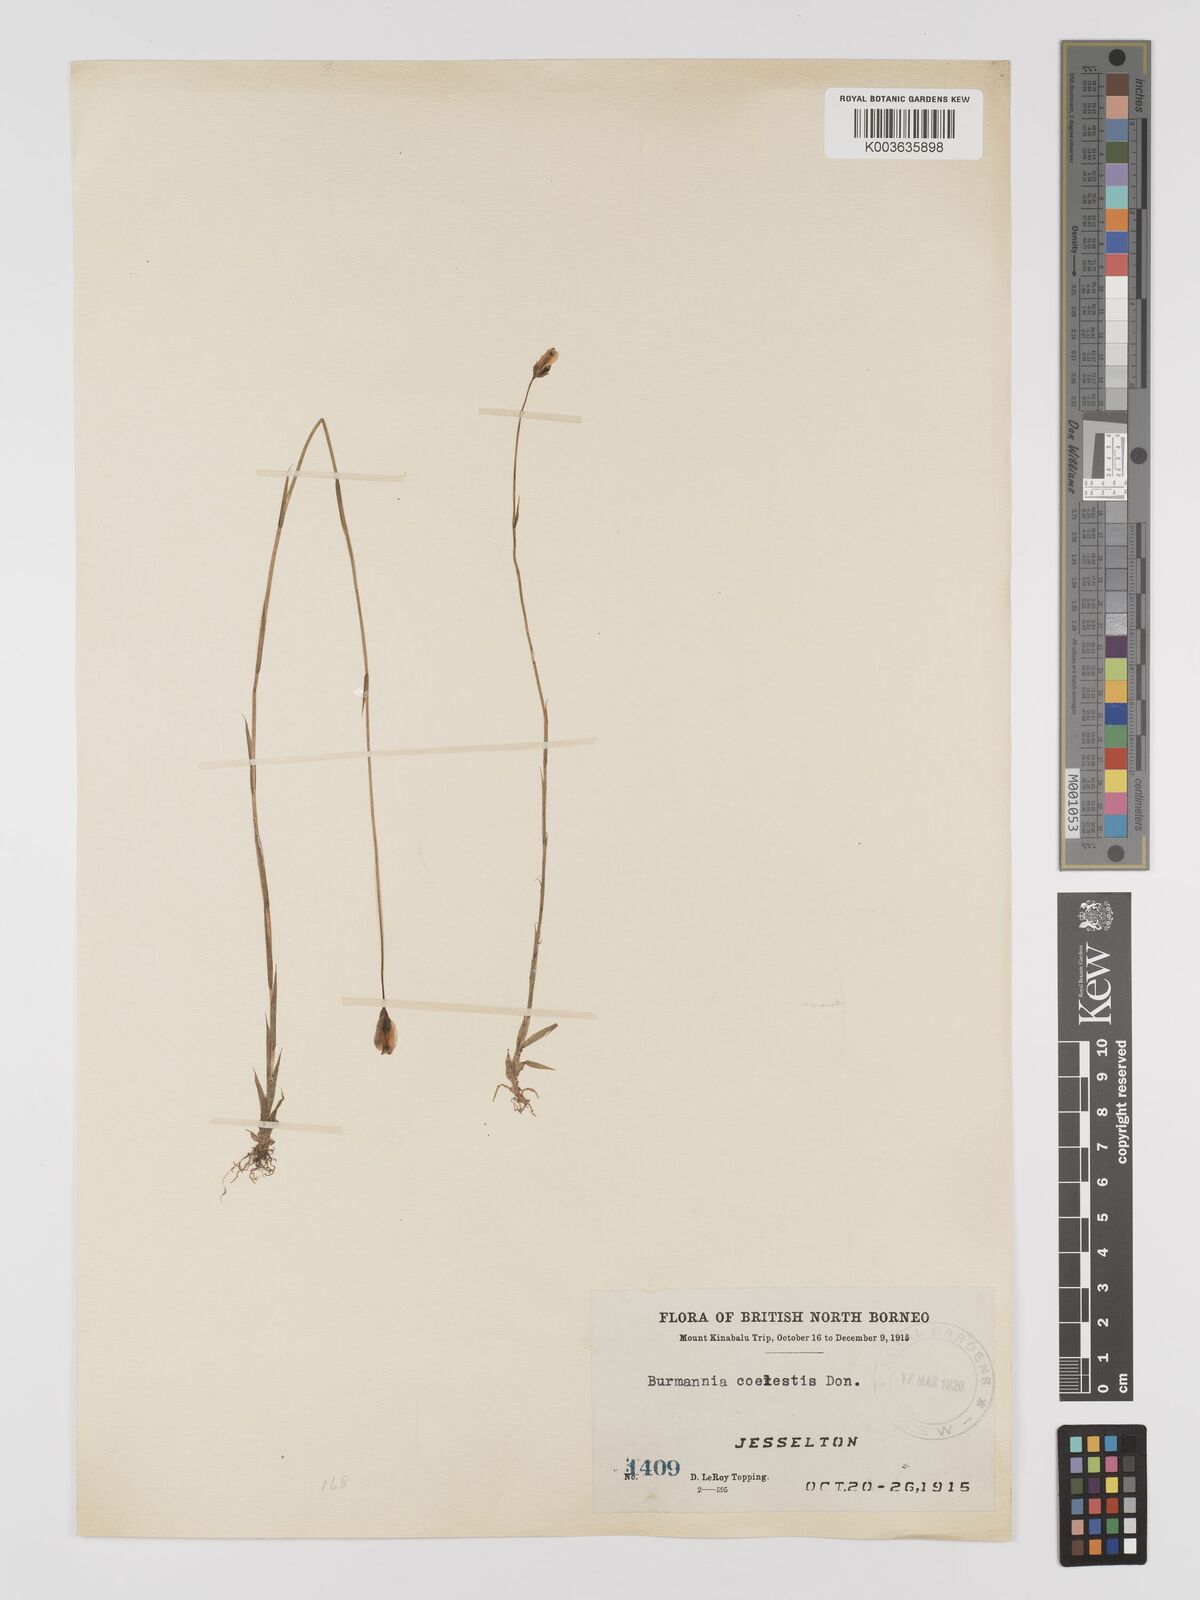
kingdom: Plantae
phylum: Tracheophyta
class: Liliopsida
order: Dioscoreales
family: Burmanniaceae
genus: Burmannia
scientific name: Burmannia coelestis
